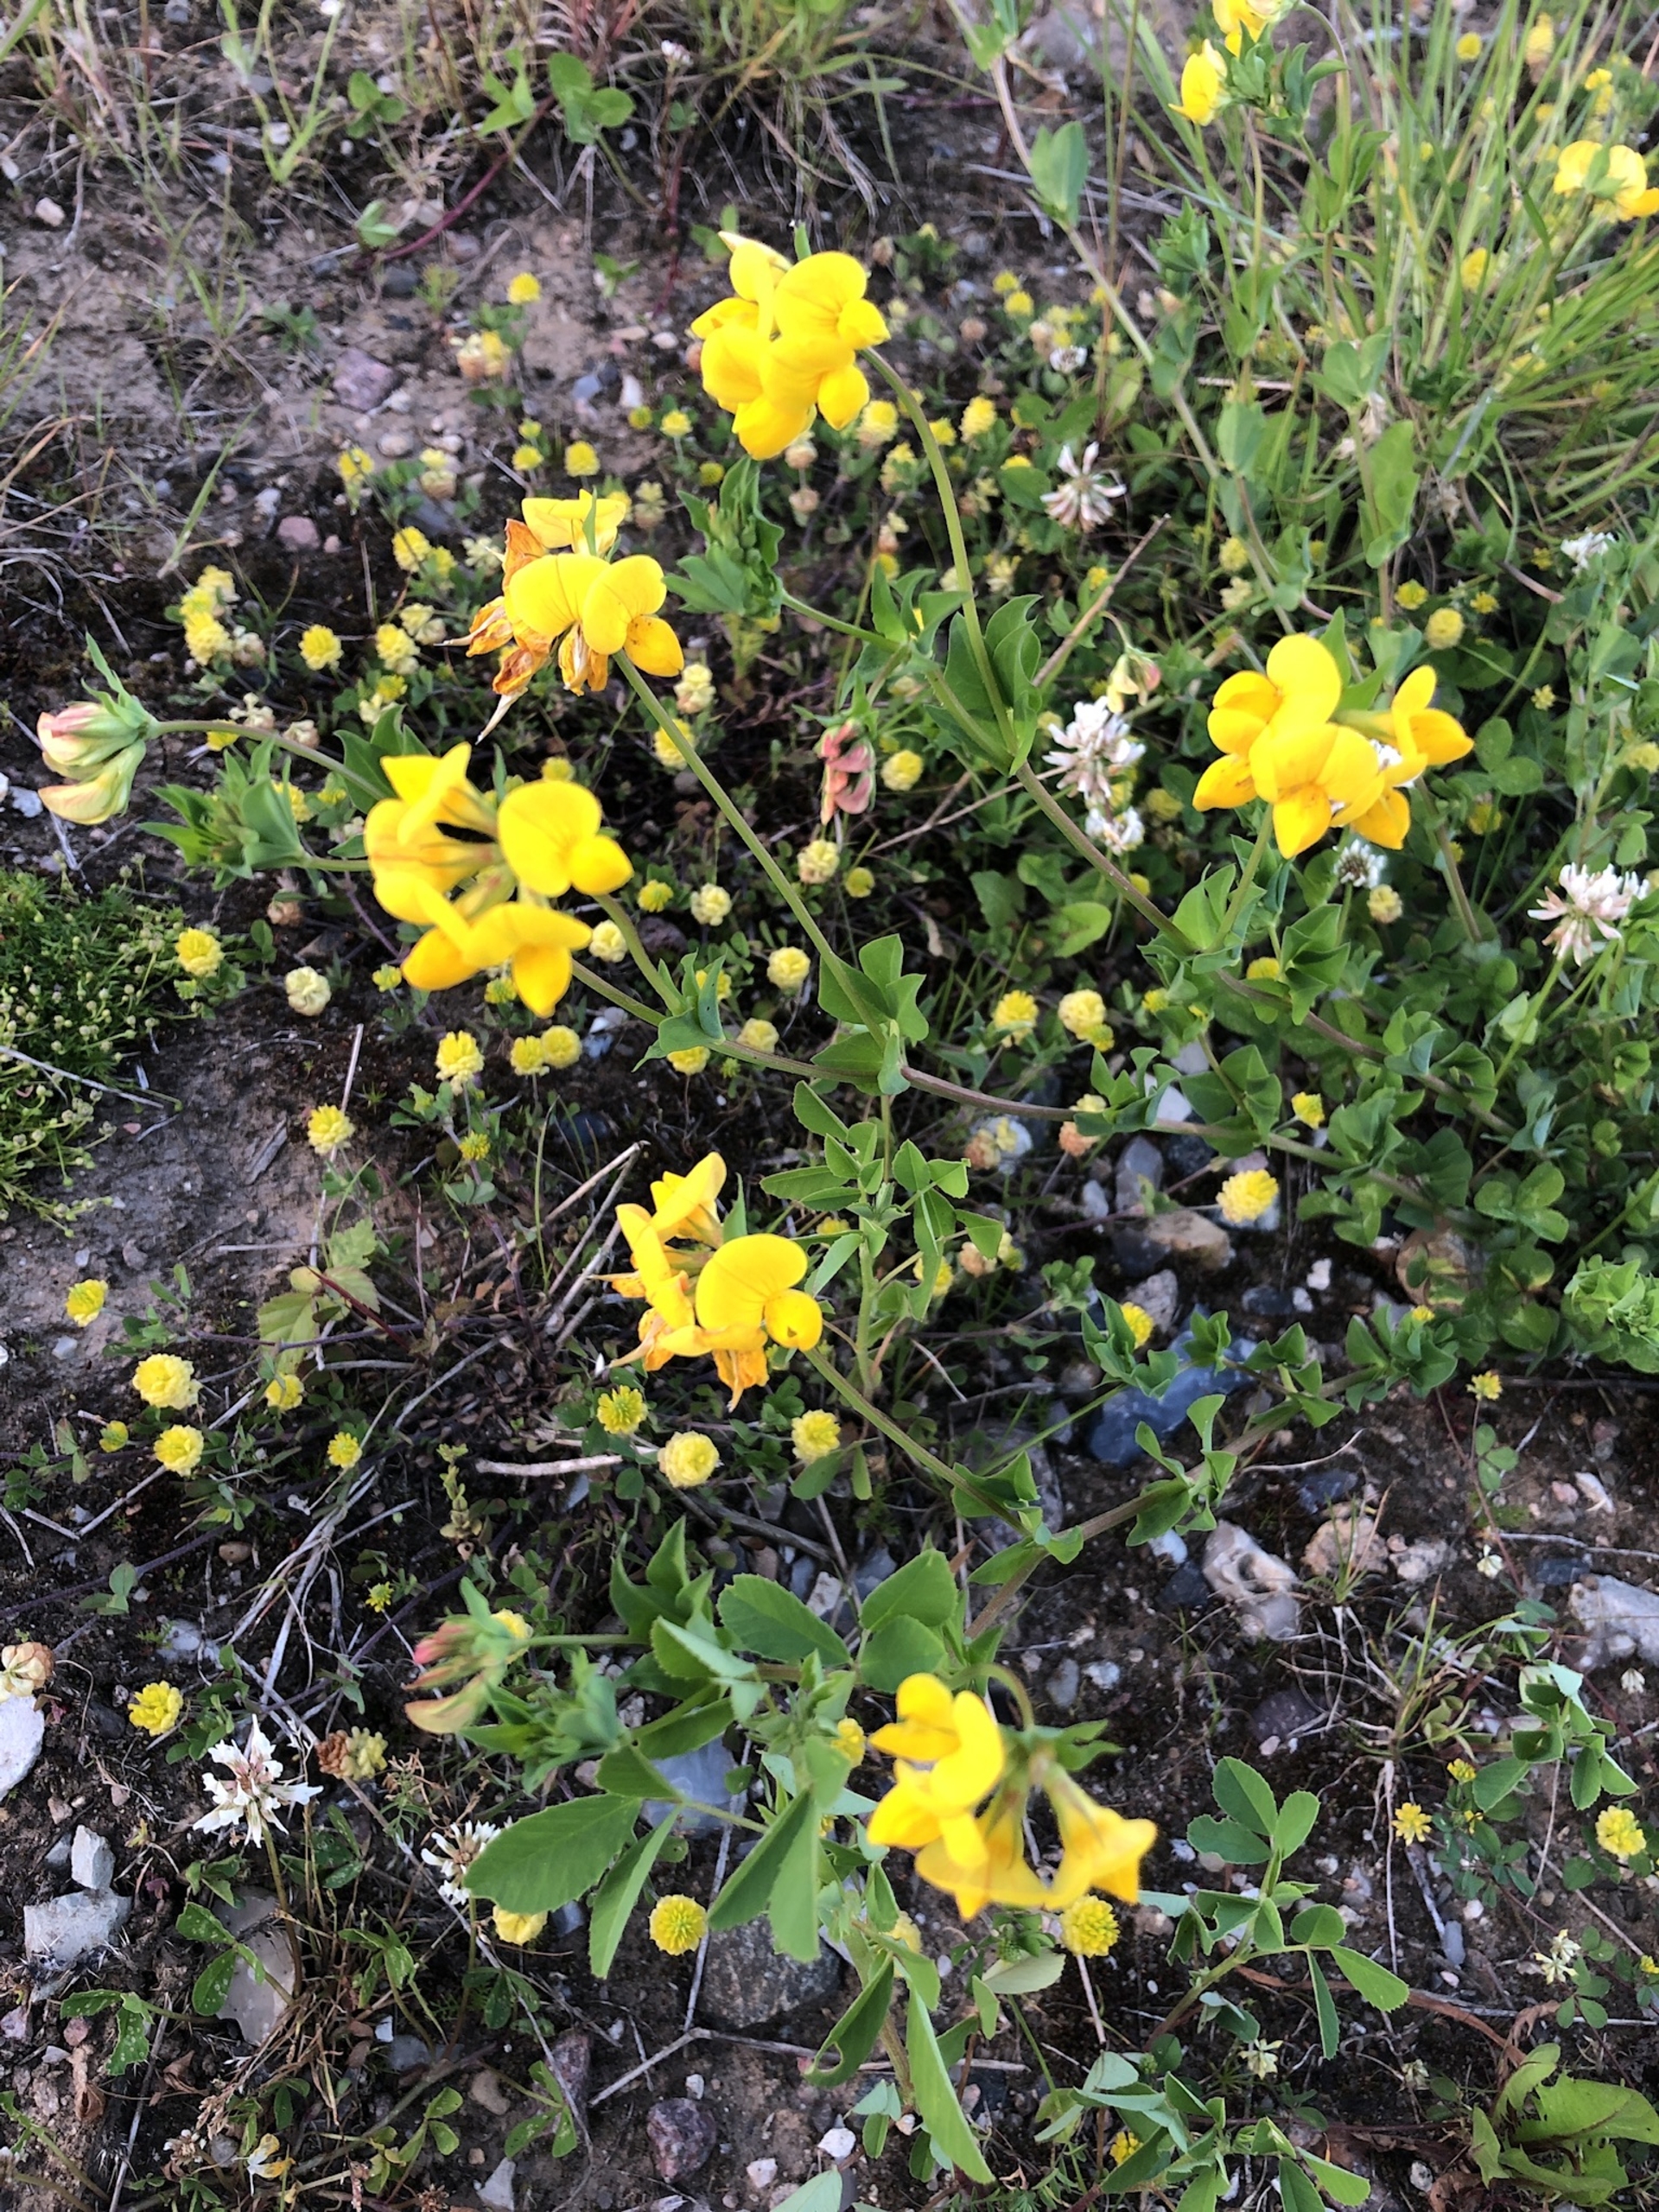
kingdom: Plantae
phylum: Tracheophyta
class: Magnoliopsida
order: Fabales
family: Fabaceae
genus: Lotus
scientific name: Lotus corniculatus
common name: Almindelig kællingetand
